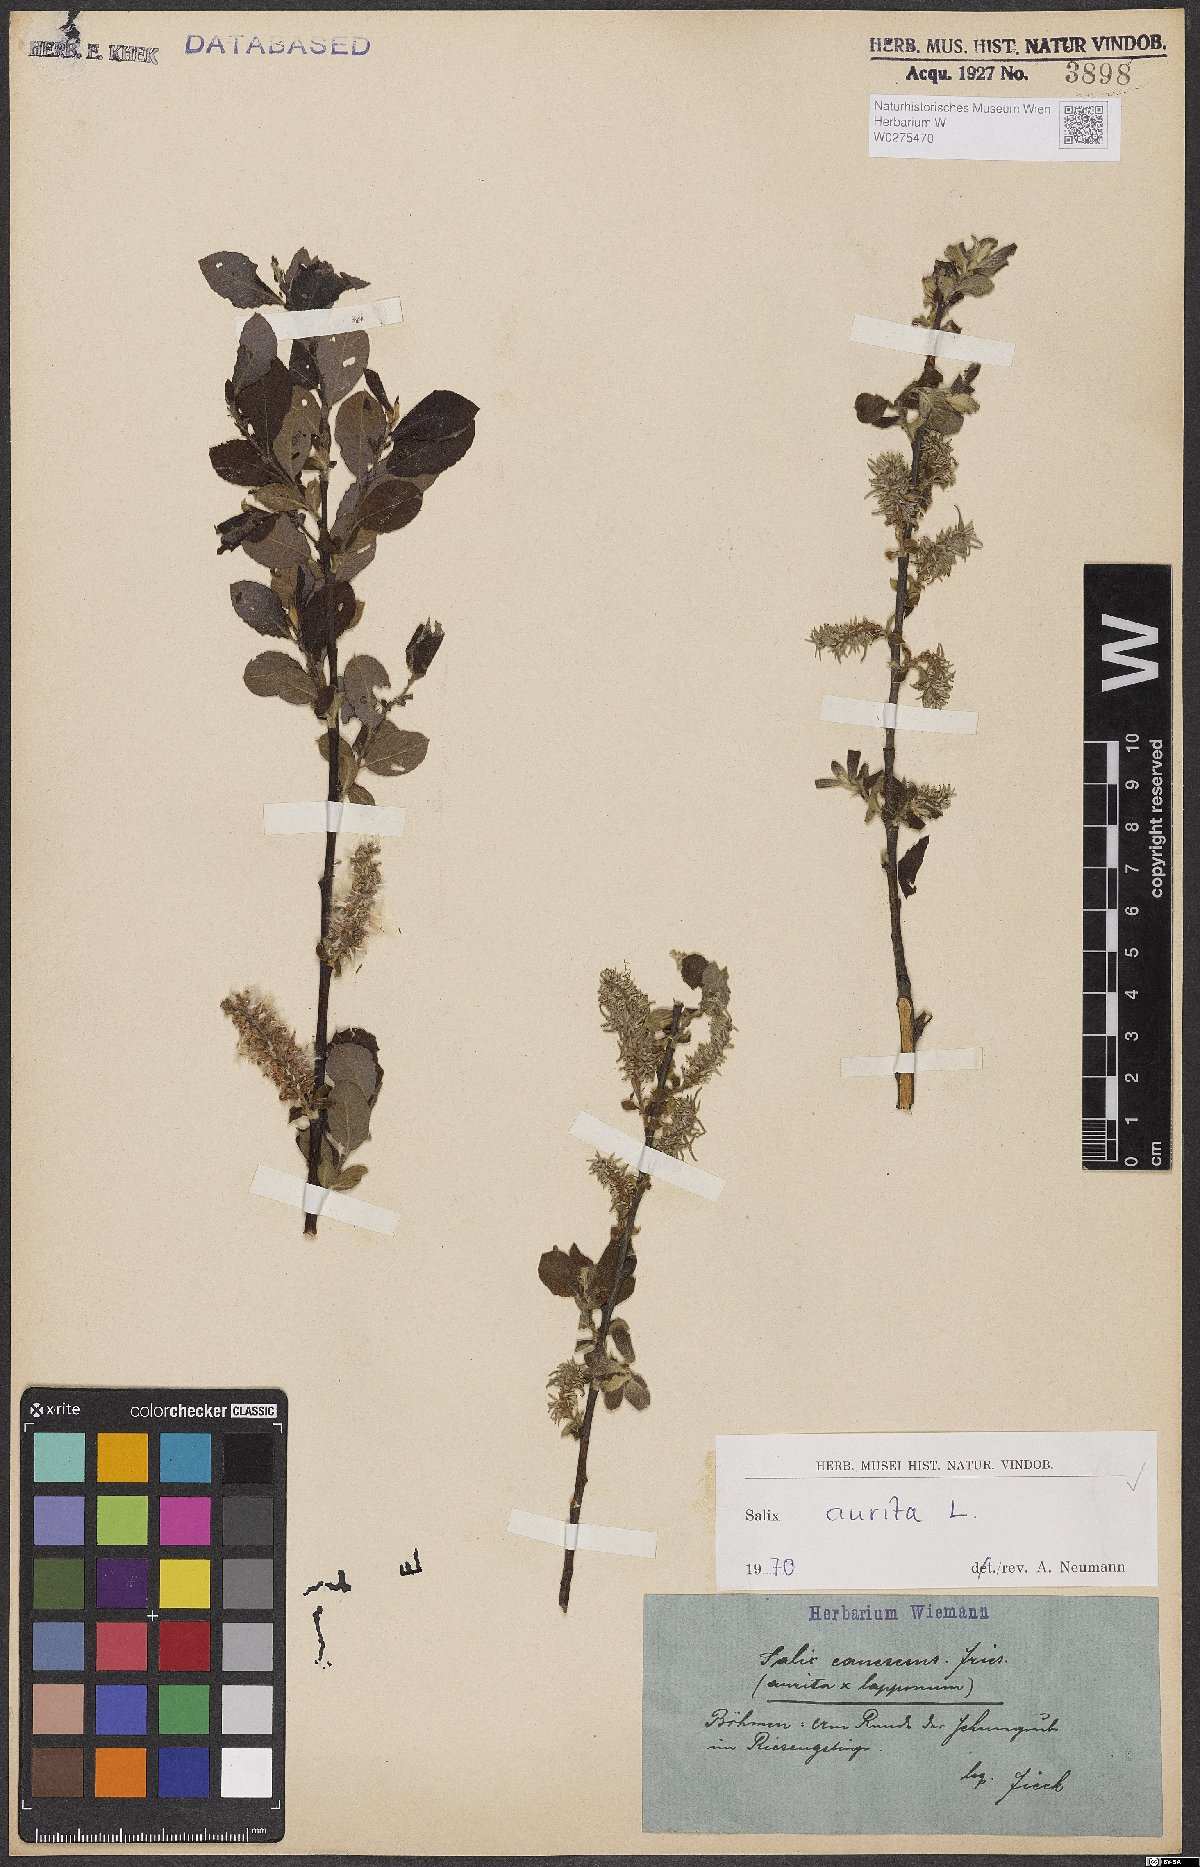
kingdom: Plantae
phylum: Tracheophyta
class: Magnoliopsida
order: Malpighiales
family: Salicaceae
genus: Salix
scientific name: Salix aurita
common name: Eared willow
